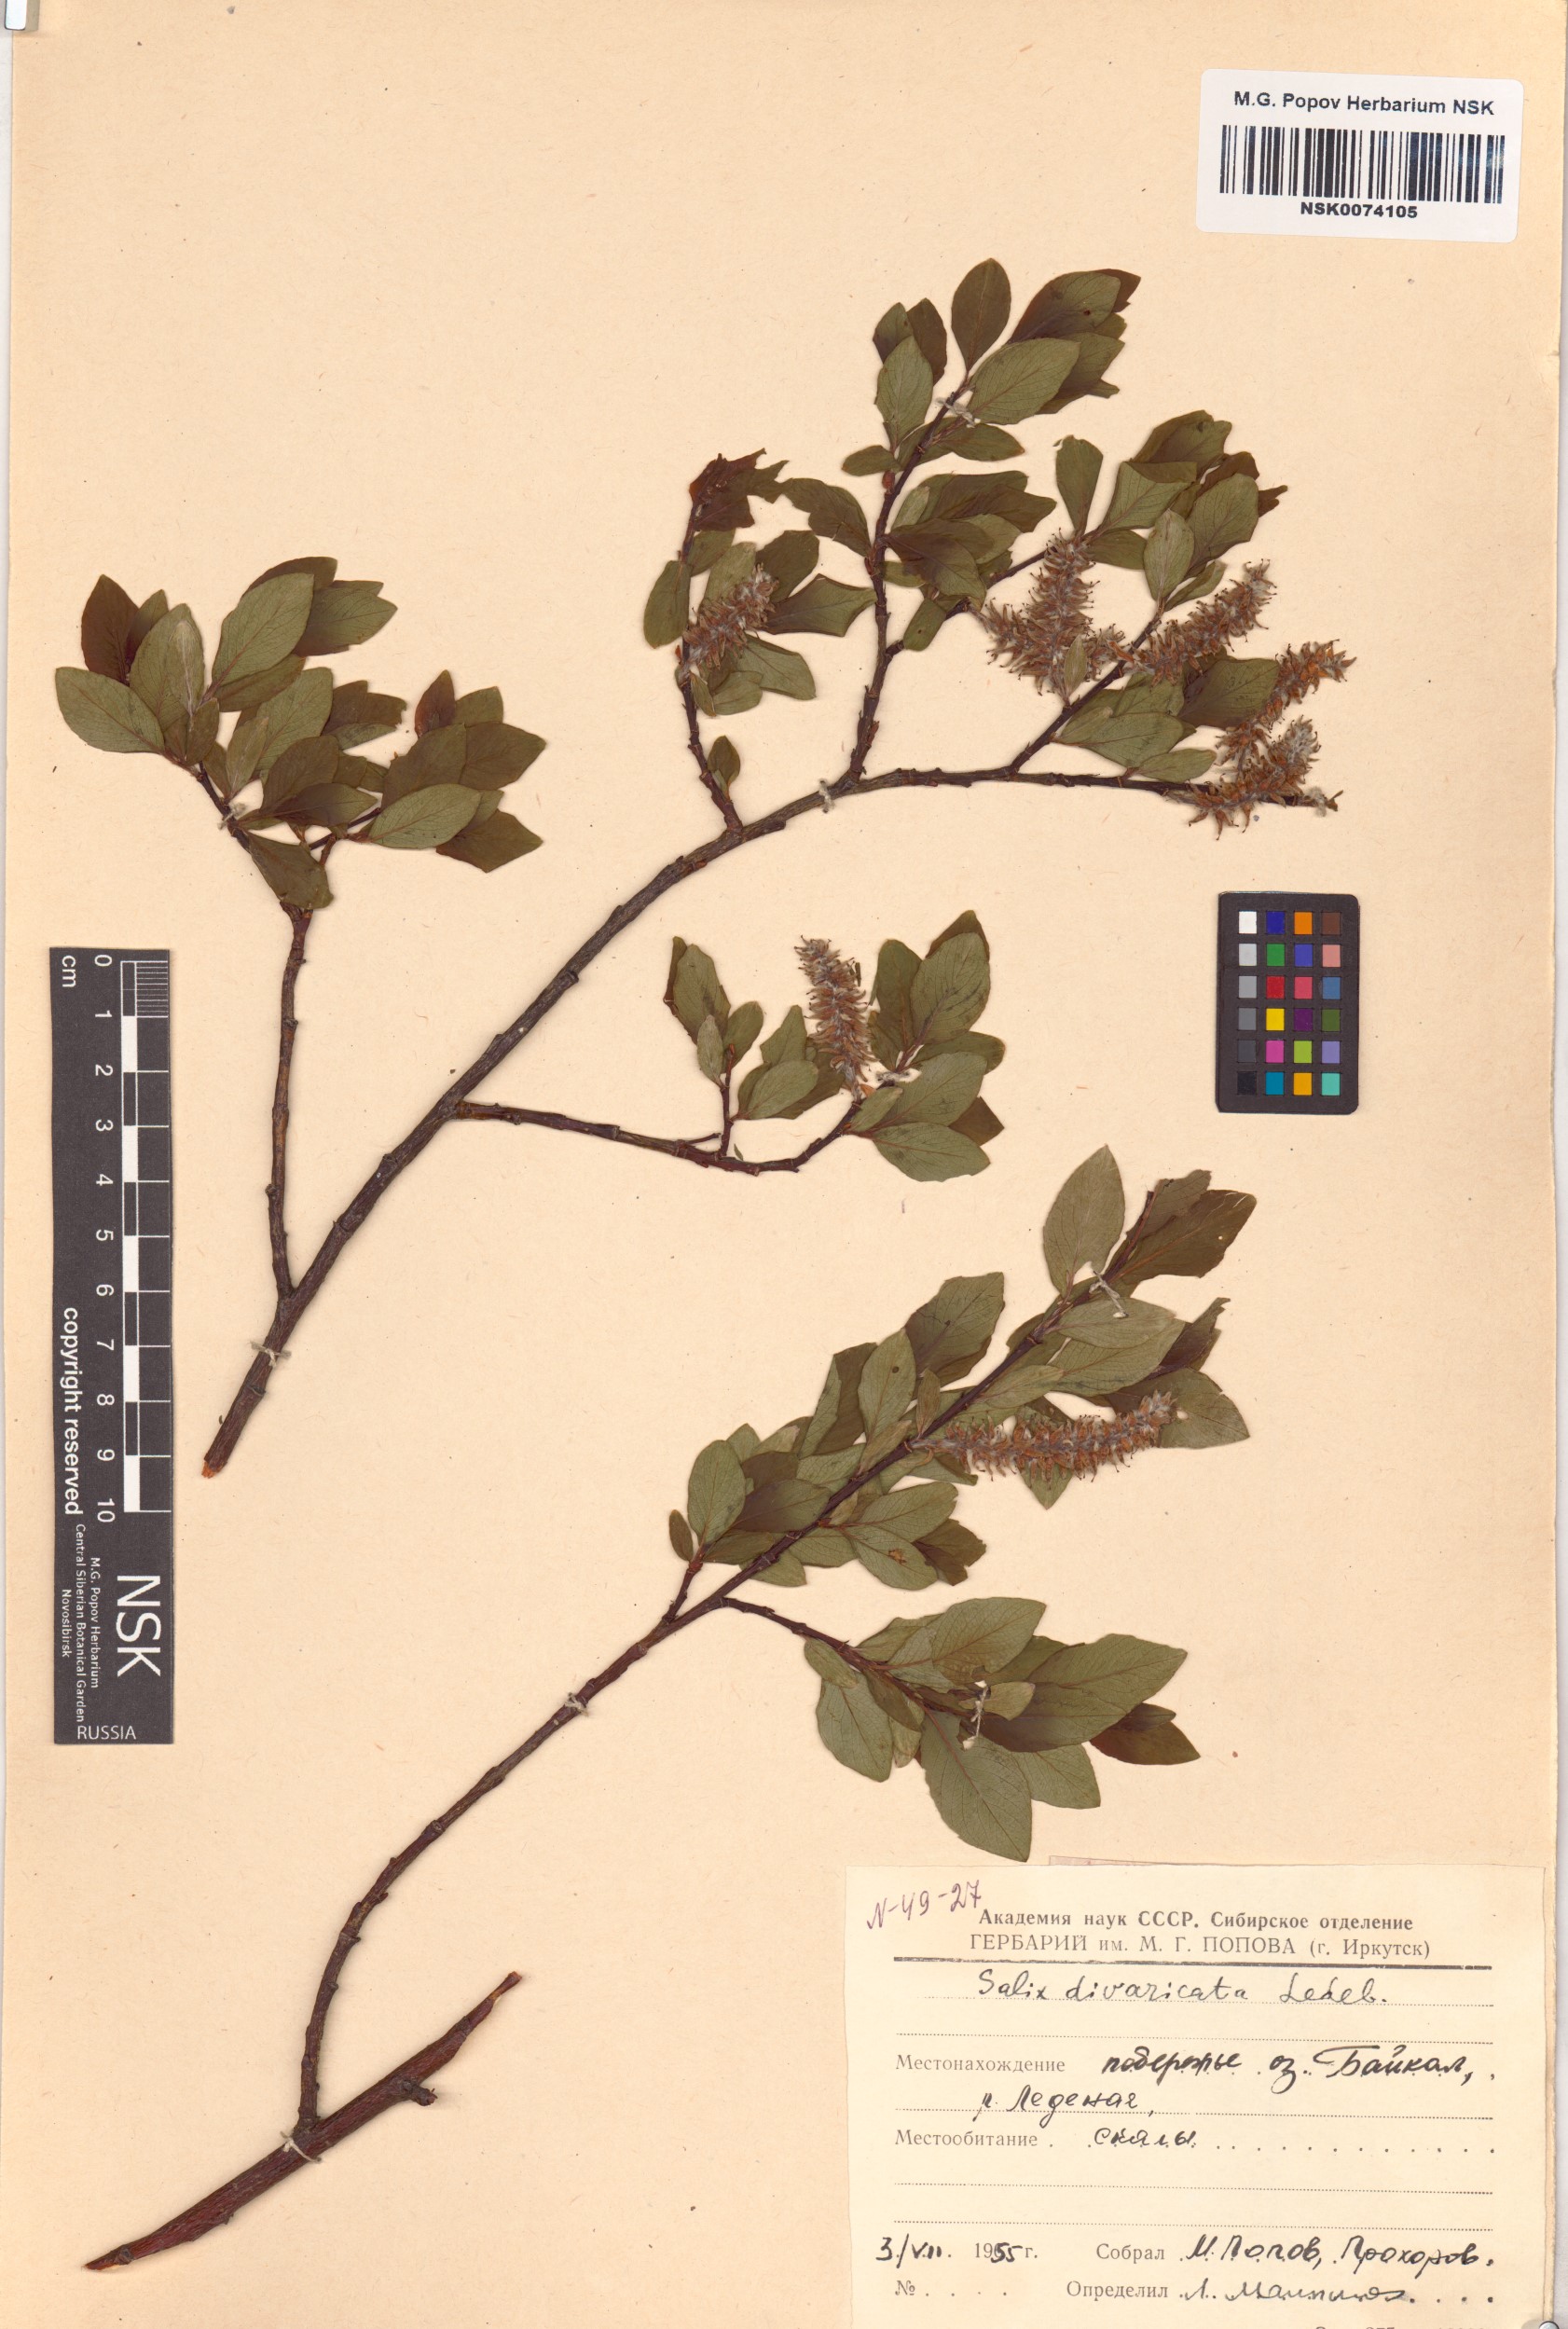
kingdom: Plantae
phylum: Tracheophyta
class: Magnoliopsida
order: Malpighiales
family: Salicaceae
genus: Salix
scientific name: Salix divaricata
